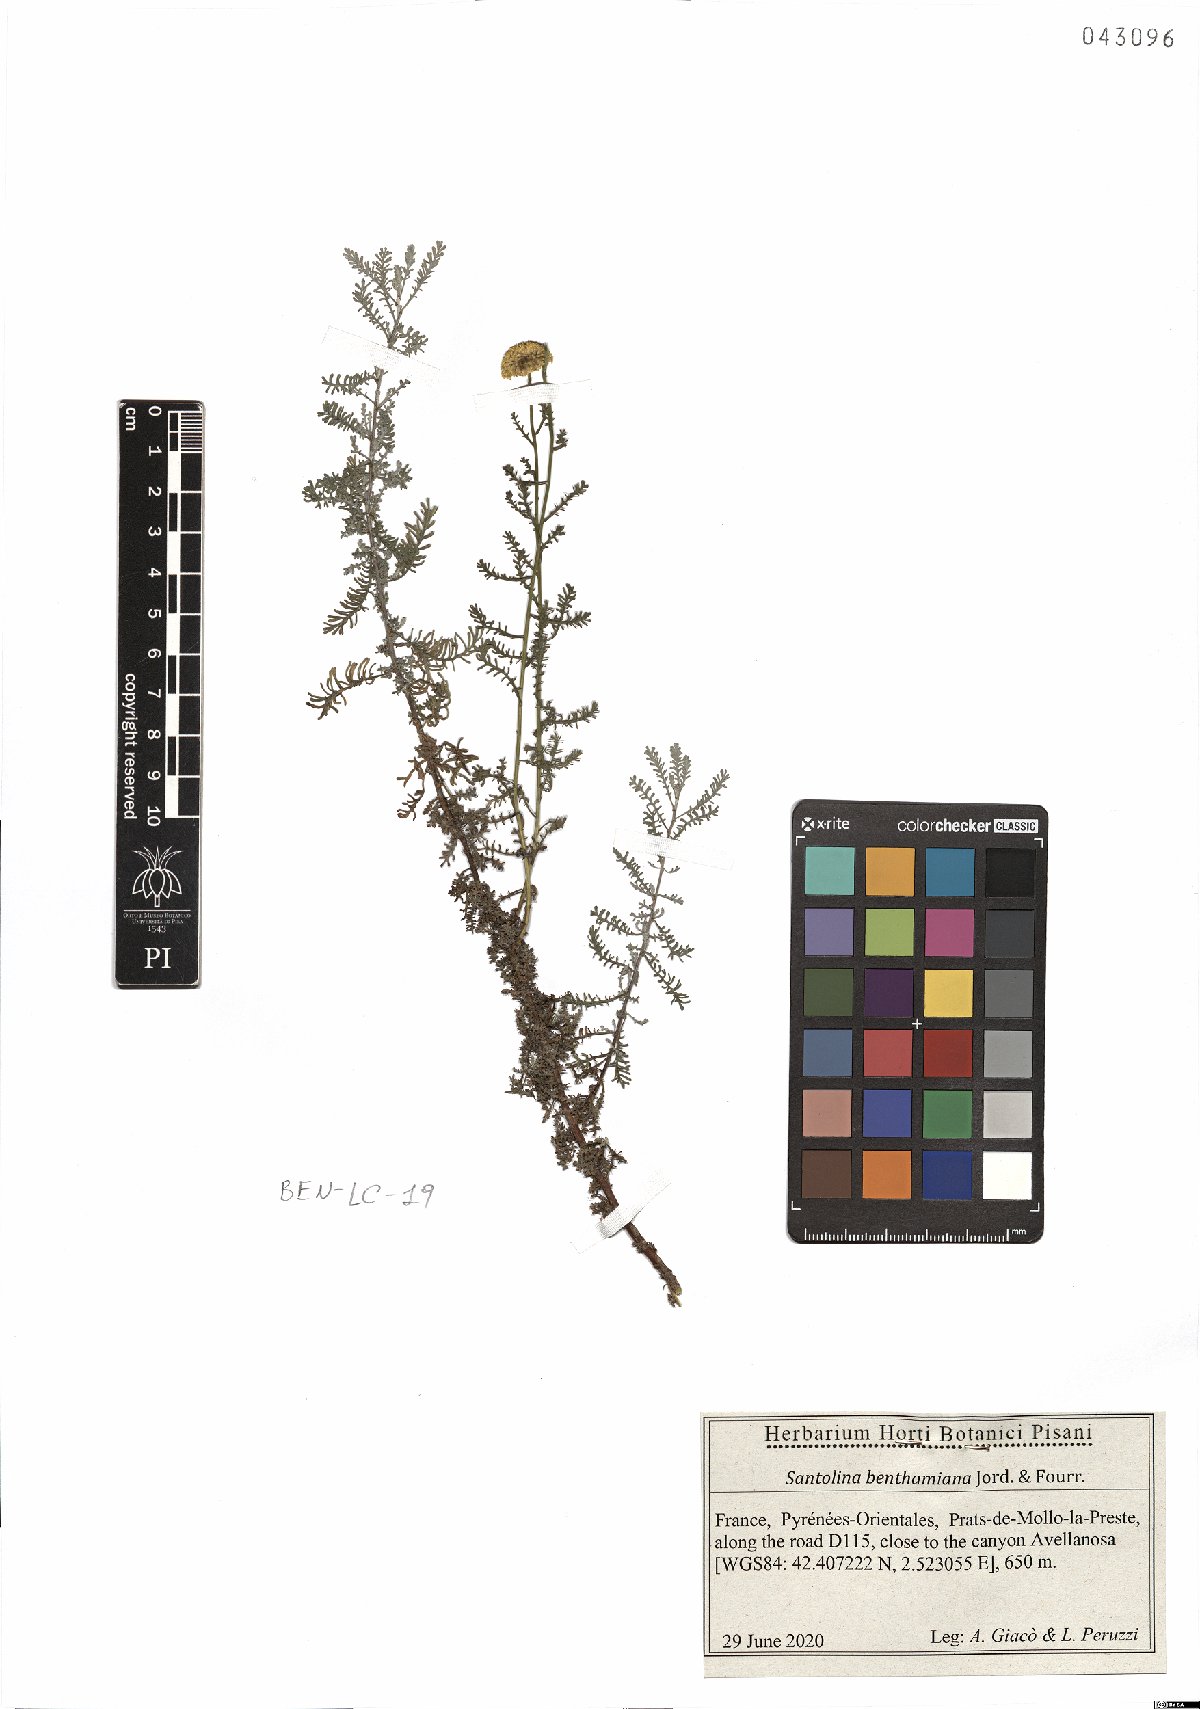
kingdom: Plantae
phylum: Tracheophyta
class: Magnoliopsida
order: Asterales
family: Asteraceae
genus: Santolina
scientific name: Santolina benthamiana
